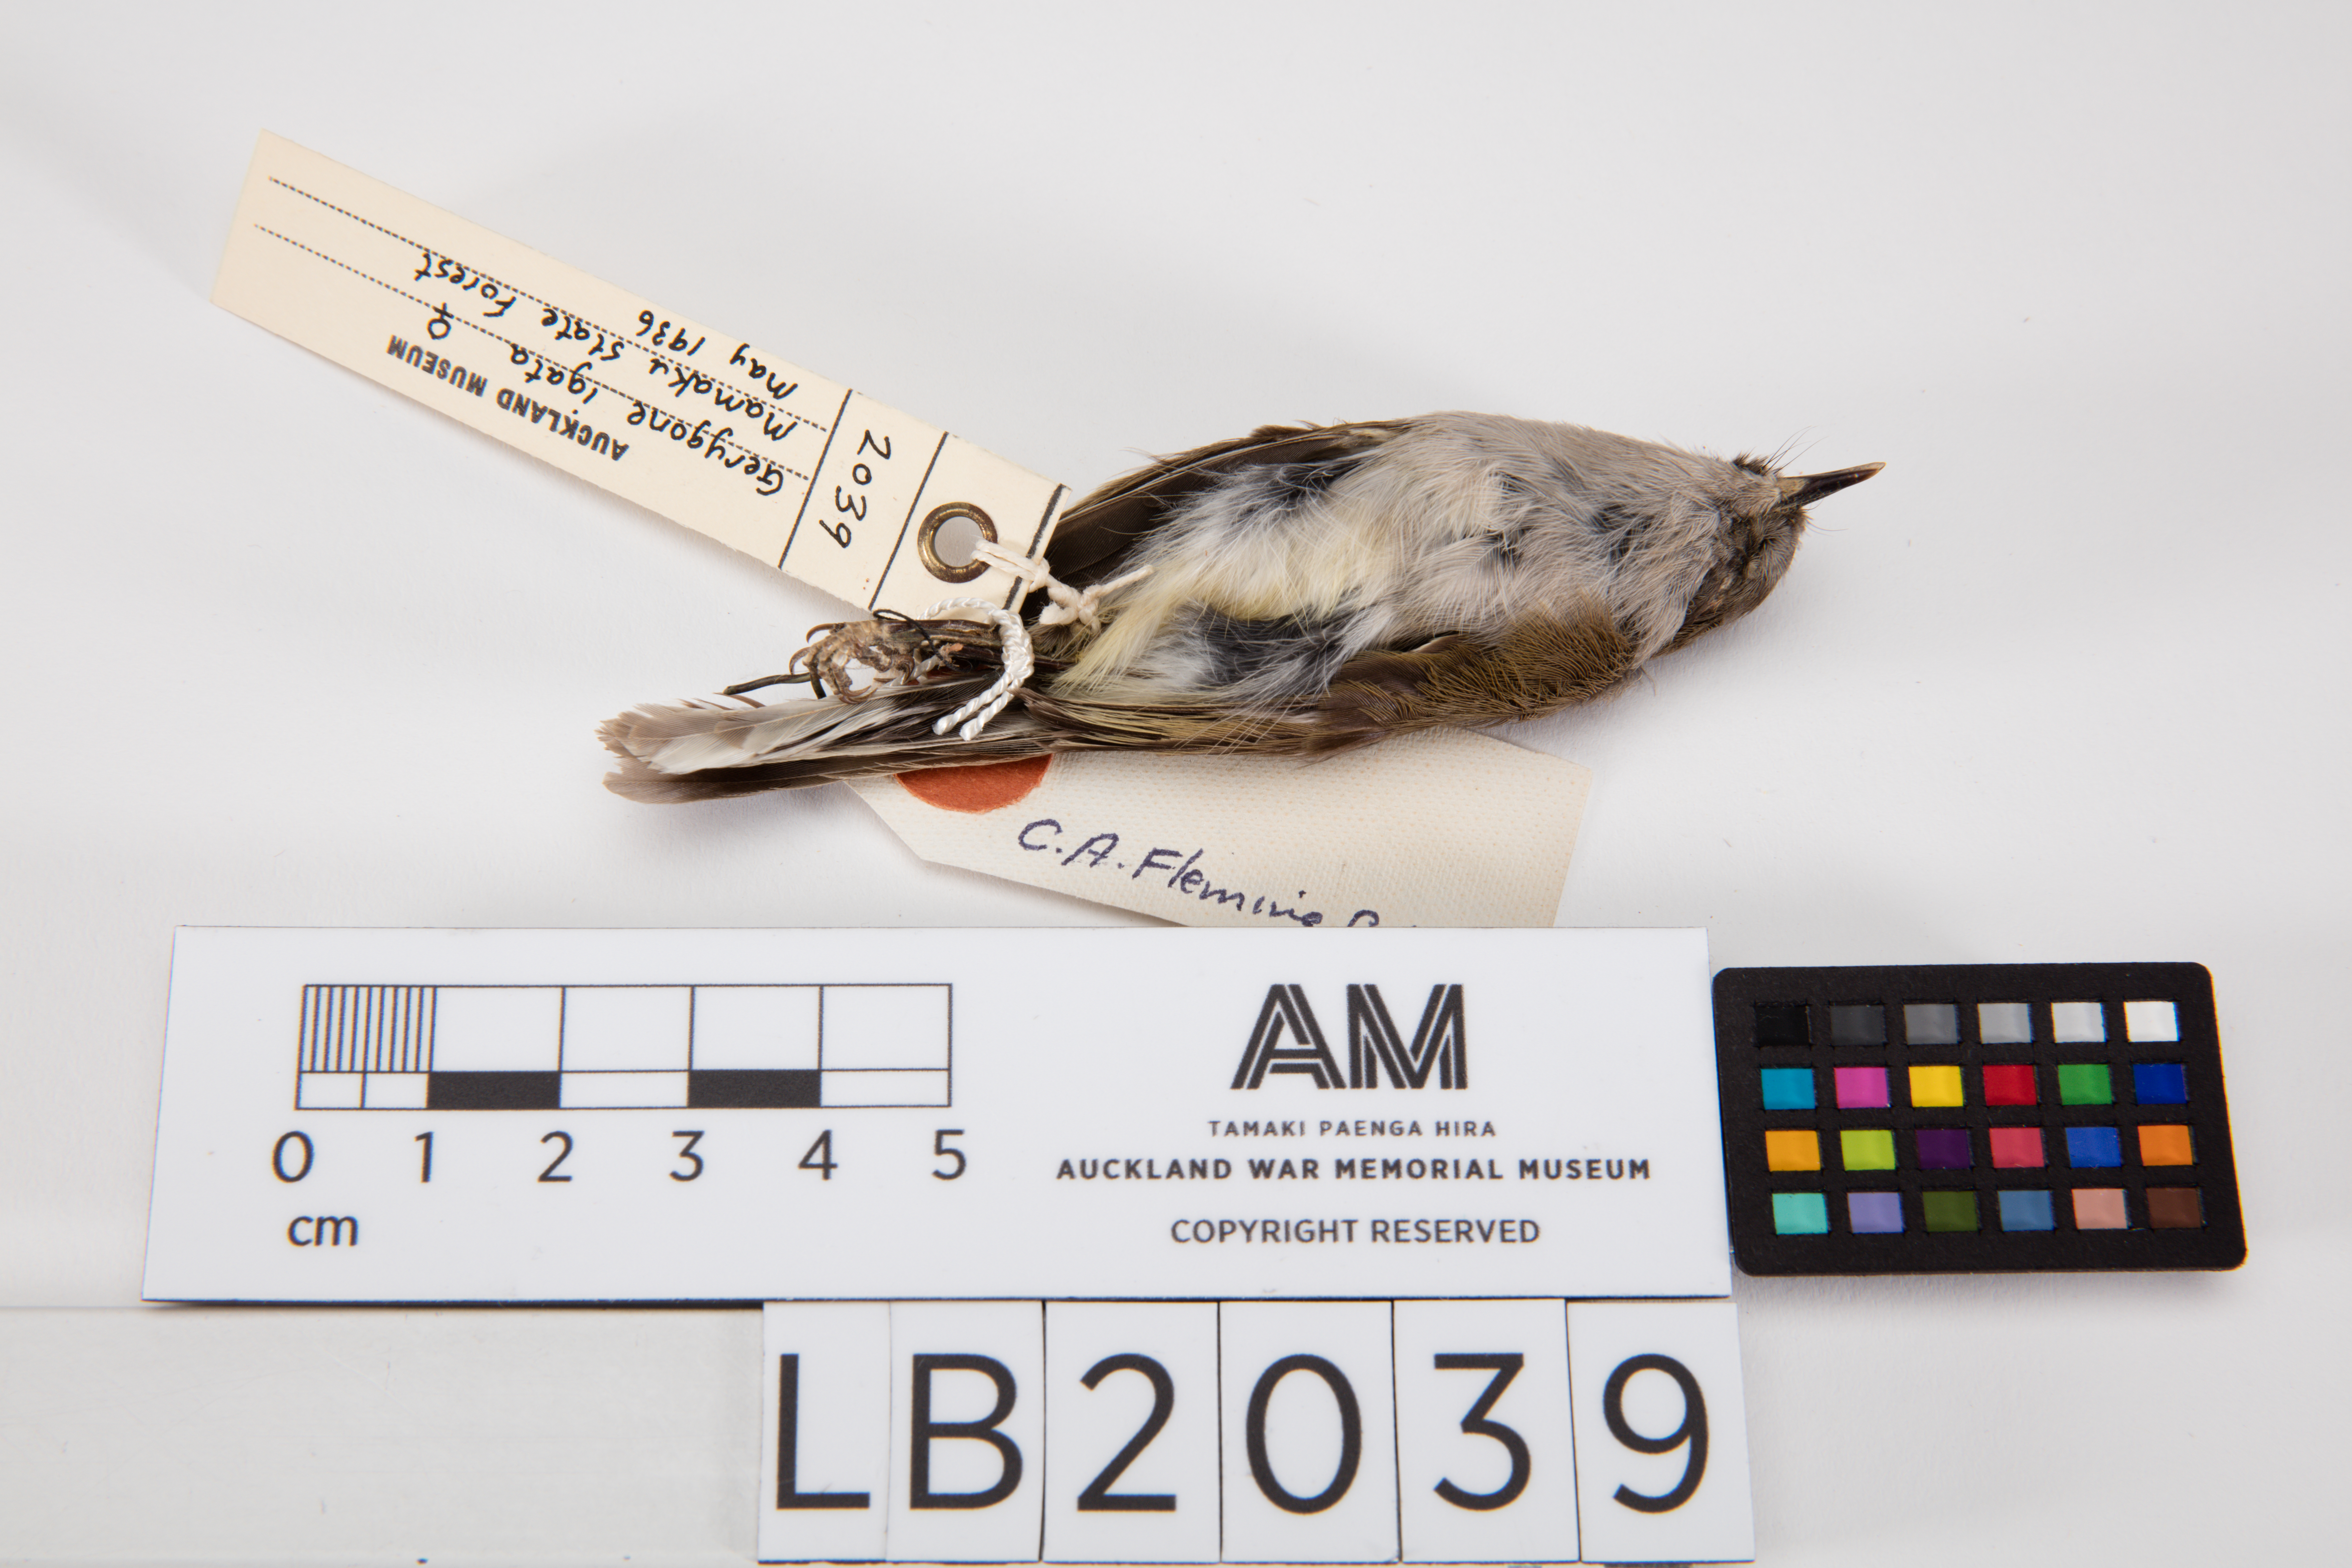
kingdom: Animalia
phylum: Chordata
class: Aves
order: Passeriformes
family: Acanthizidae
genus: Gerygone
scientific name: Gerygone igata
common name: Grey gerygone
